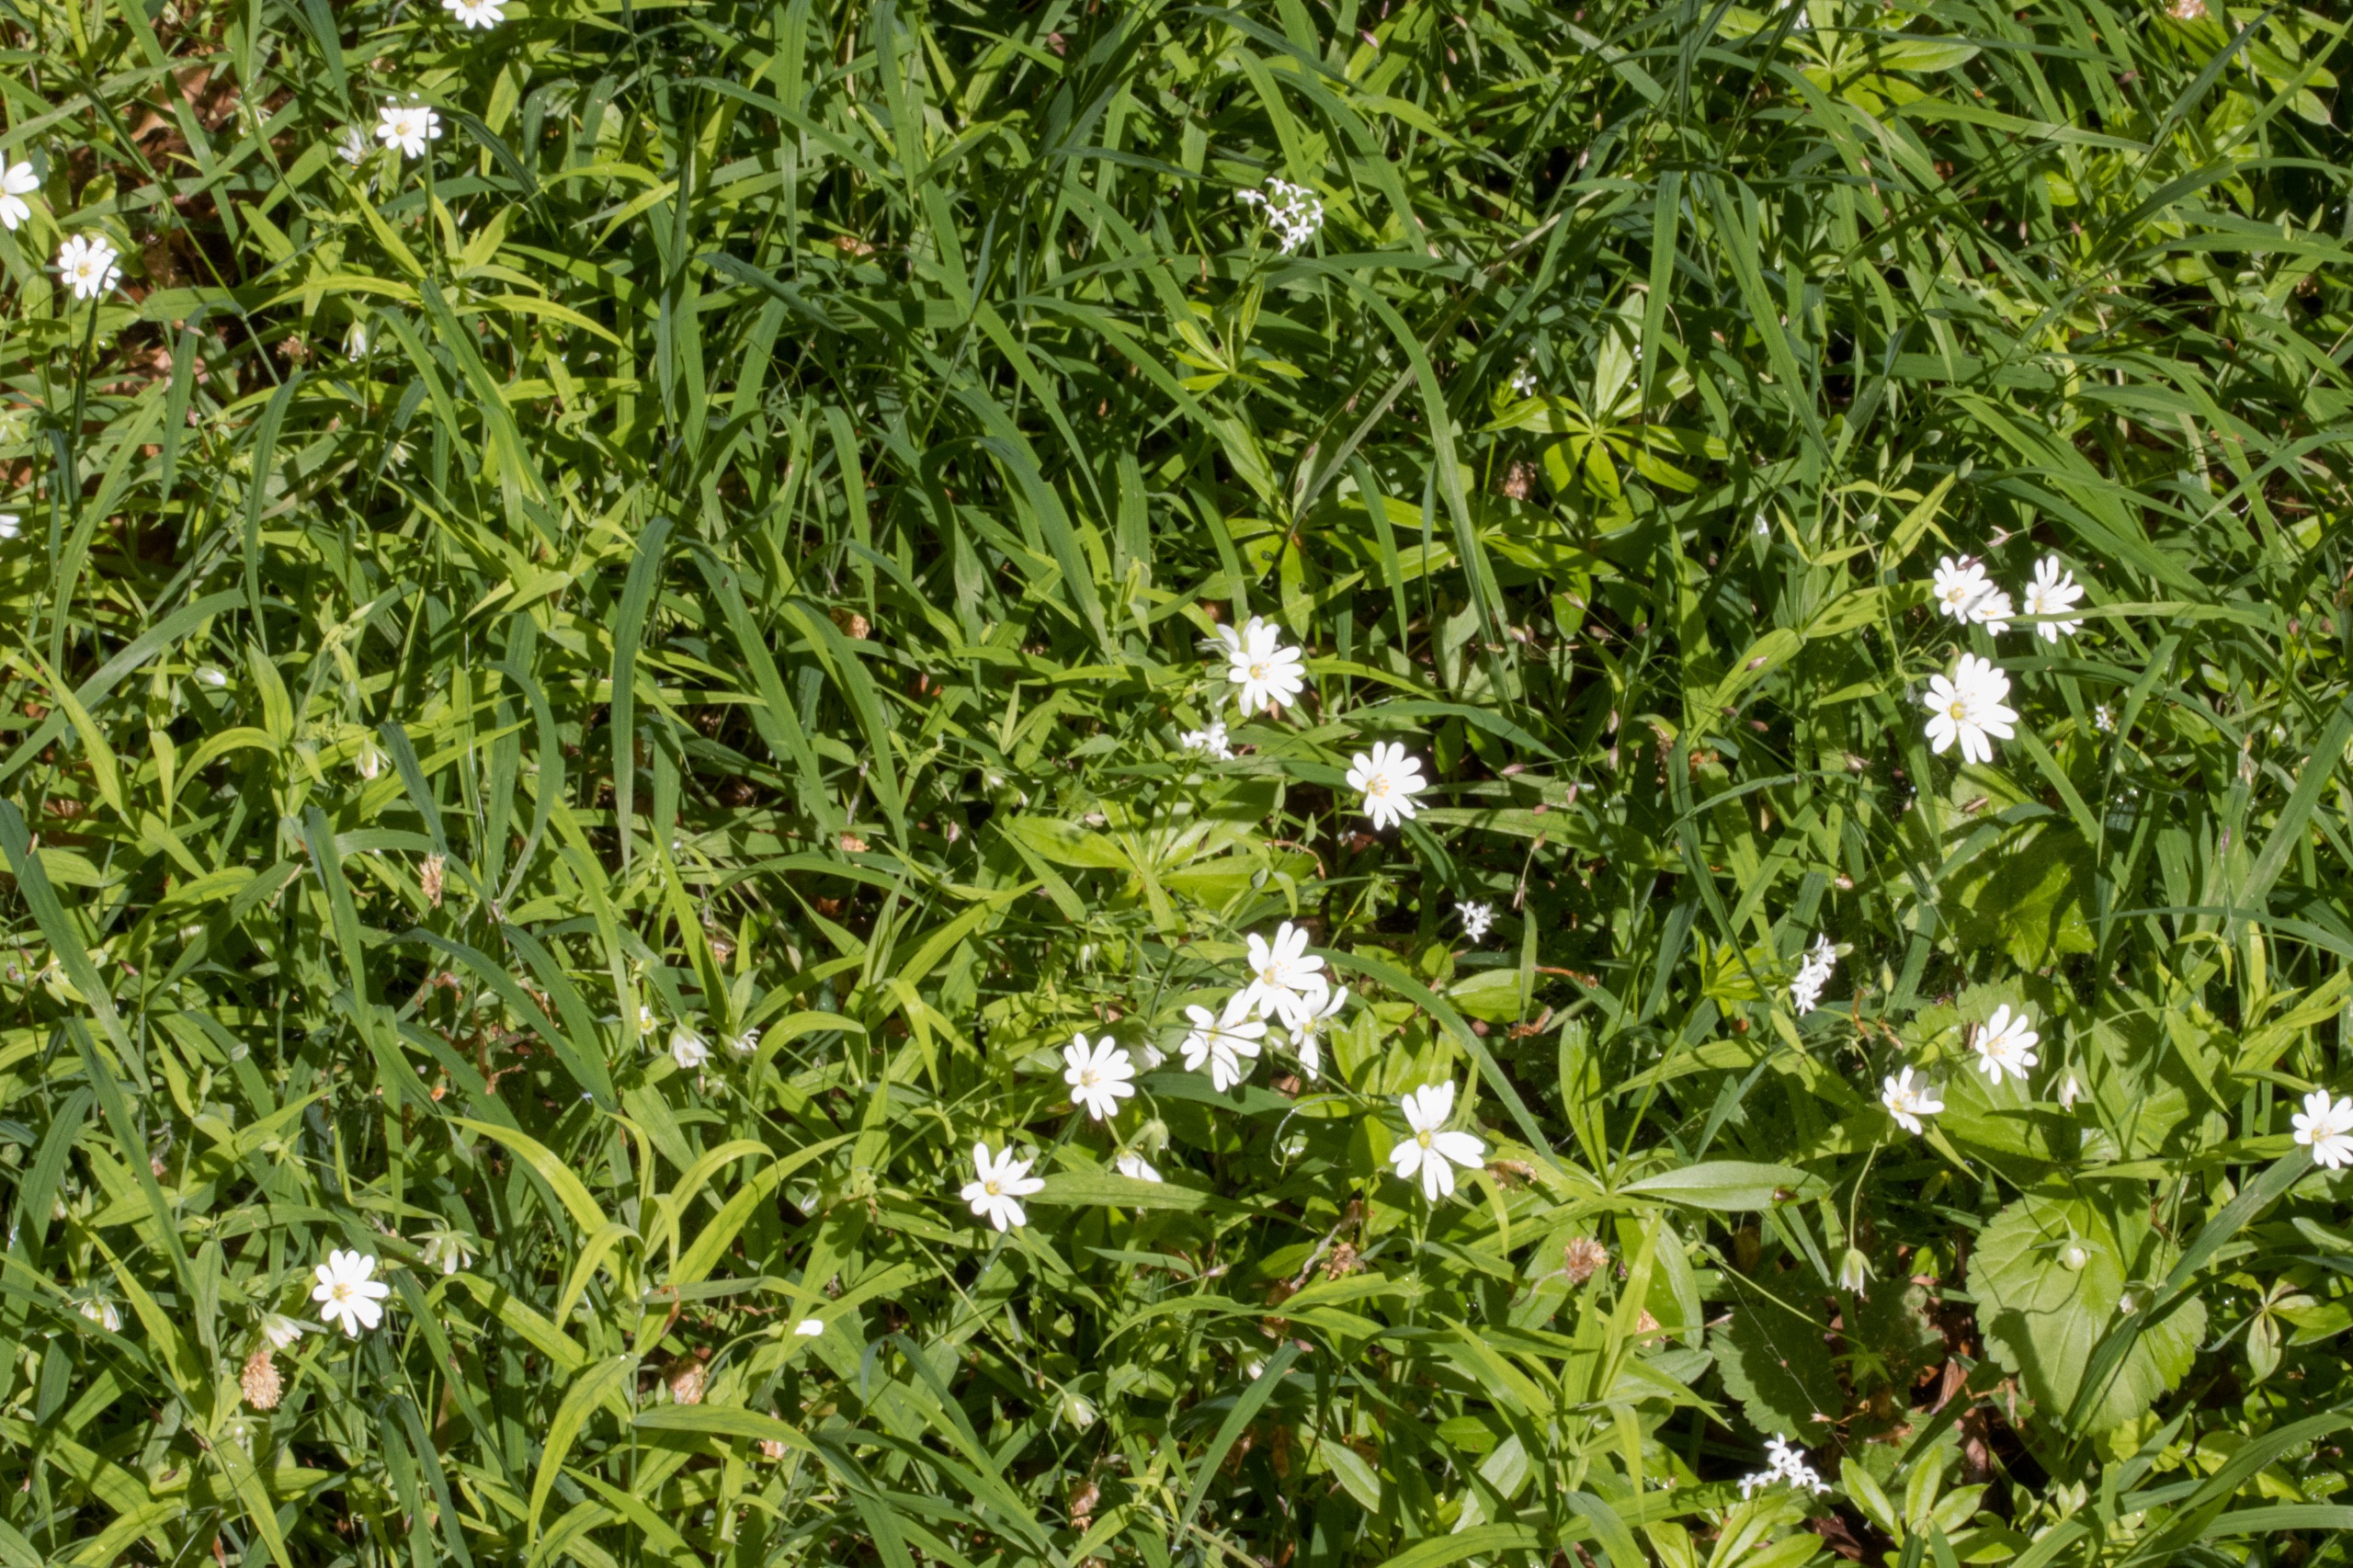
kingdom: Plantae
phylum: Tracheophyta
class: Magnoliopsida
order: Caryophyllales
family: Caryophyllaceae
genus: Rabelera
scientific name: Rabelera holostea
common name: Stor fladstjerne
